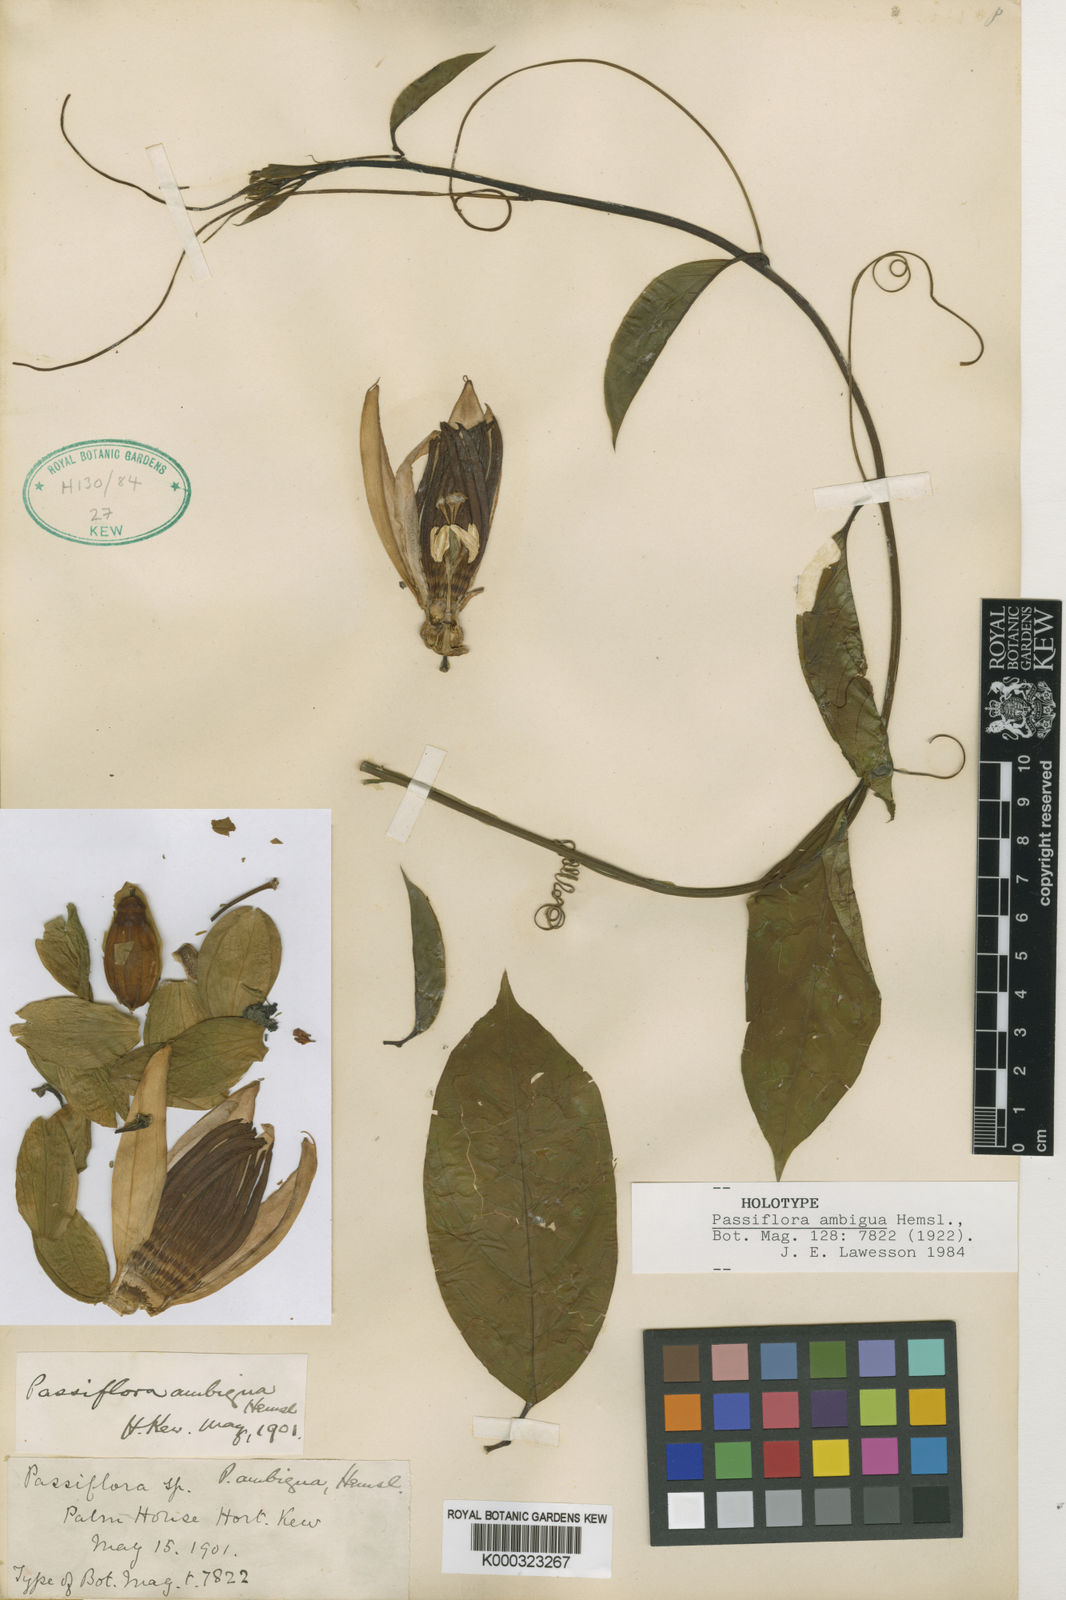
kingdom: Plantae
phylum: Tracheophyta
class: Magnoliopsida
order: Malpighiales
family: Passifloraceae
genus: Passiflora
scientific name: Passiflora ambigua
